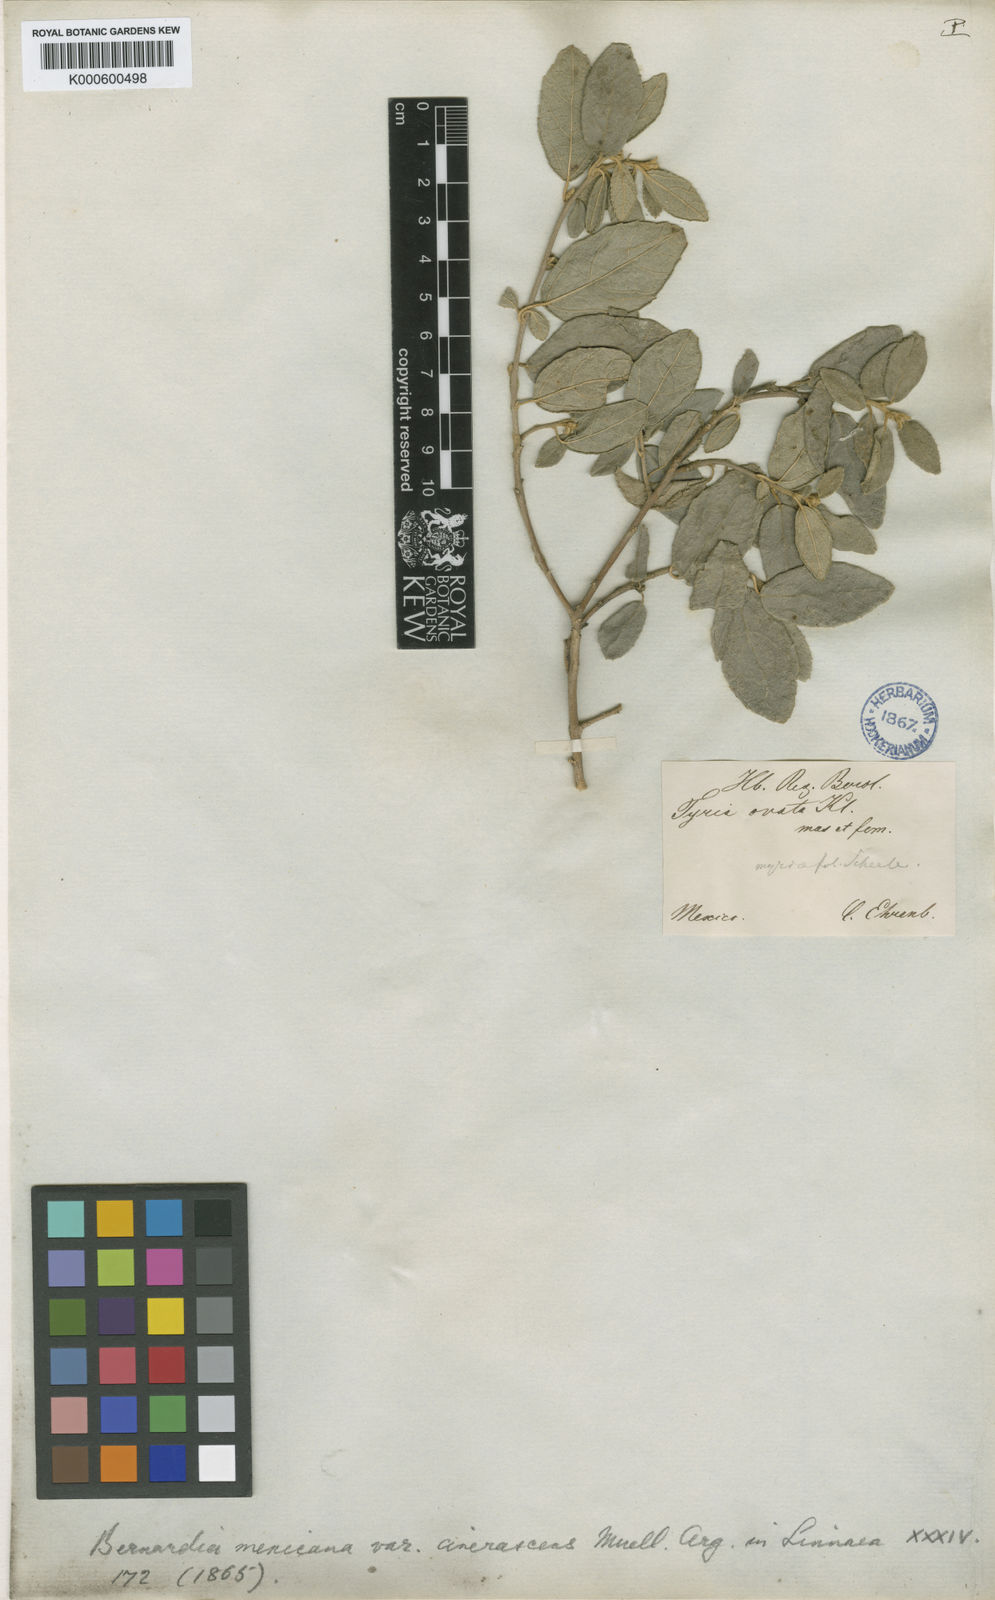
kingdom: Plantae
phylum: Tracheophyta
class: Magnoliopsida
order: Malpighiales
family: Euphorbiaceae
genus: Bernardia
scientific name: Bernardia
